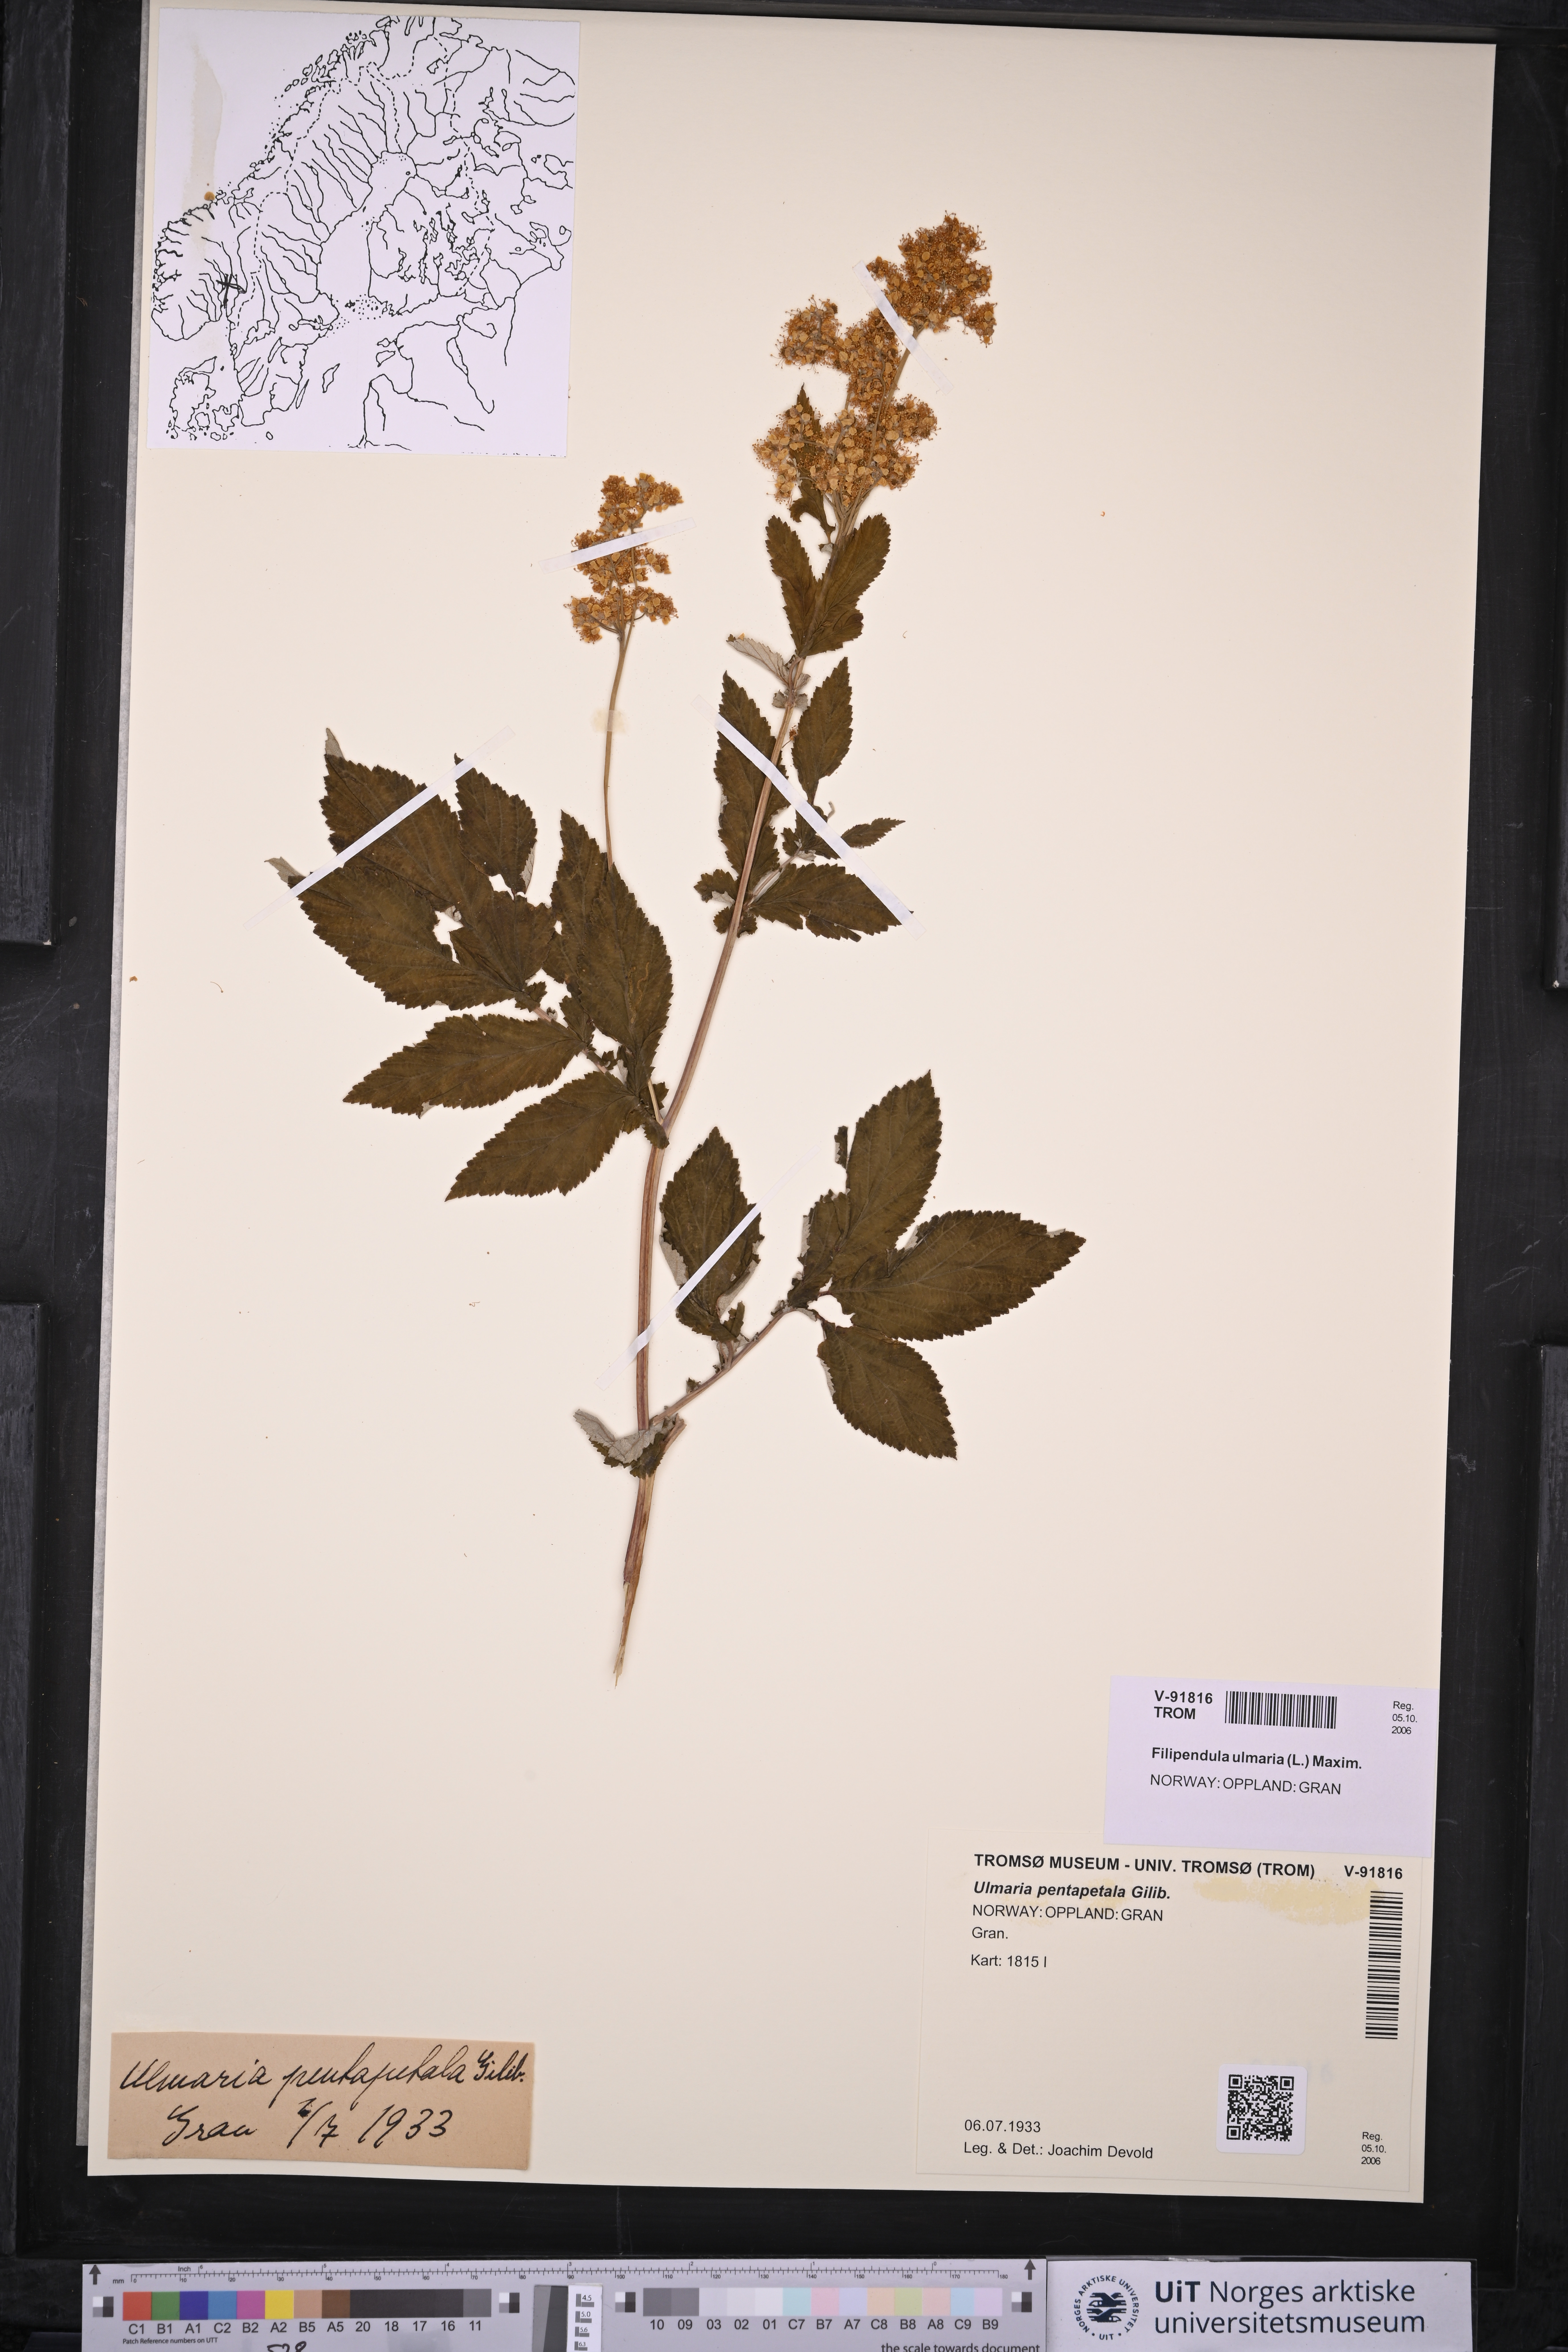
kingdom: Plantae
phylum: Tracheophyta
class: Magnoliopsida
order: Rosales
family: Rosaceae
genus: Filipendula
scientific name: Filipendula ulmaria
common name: Meadowsweet
